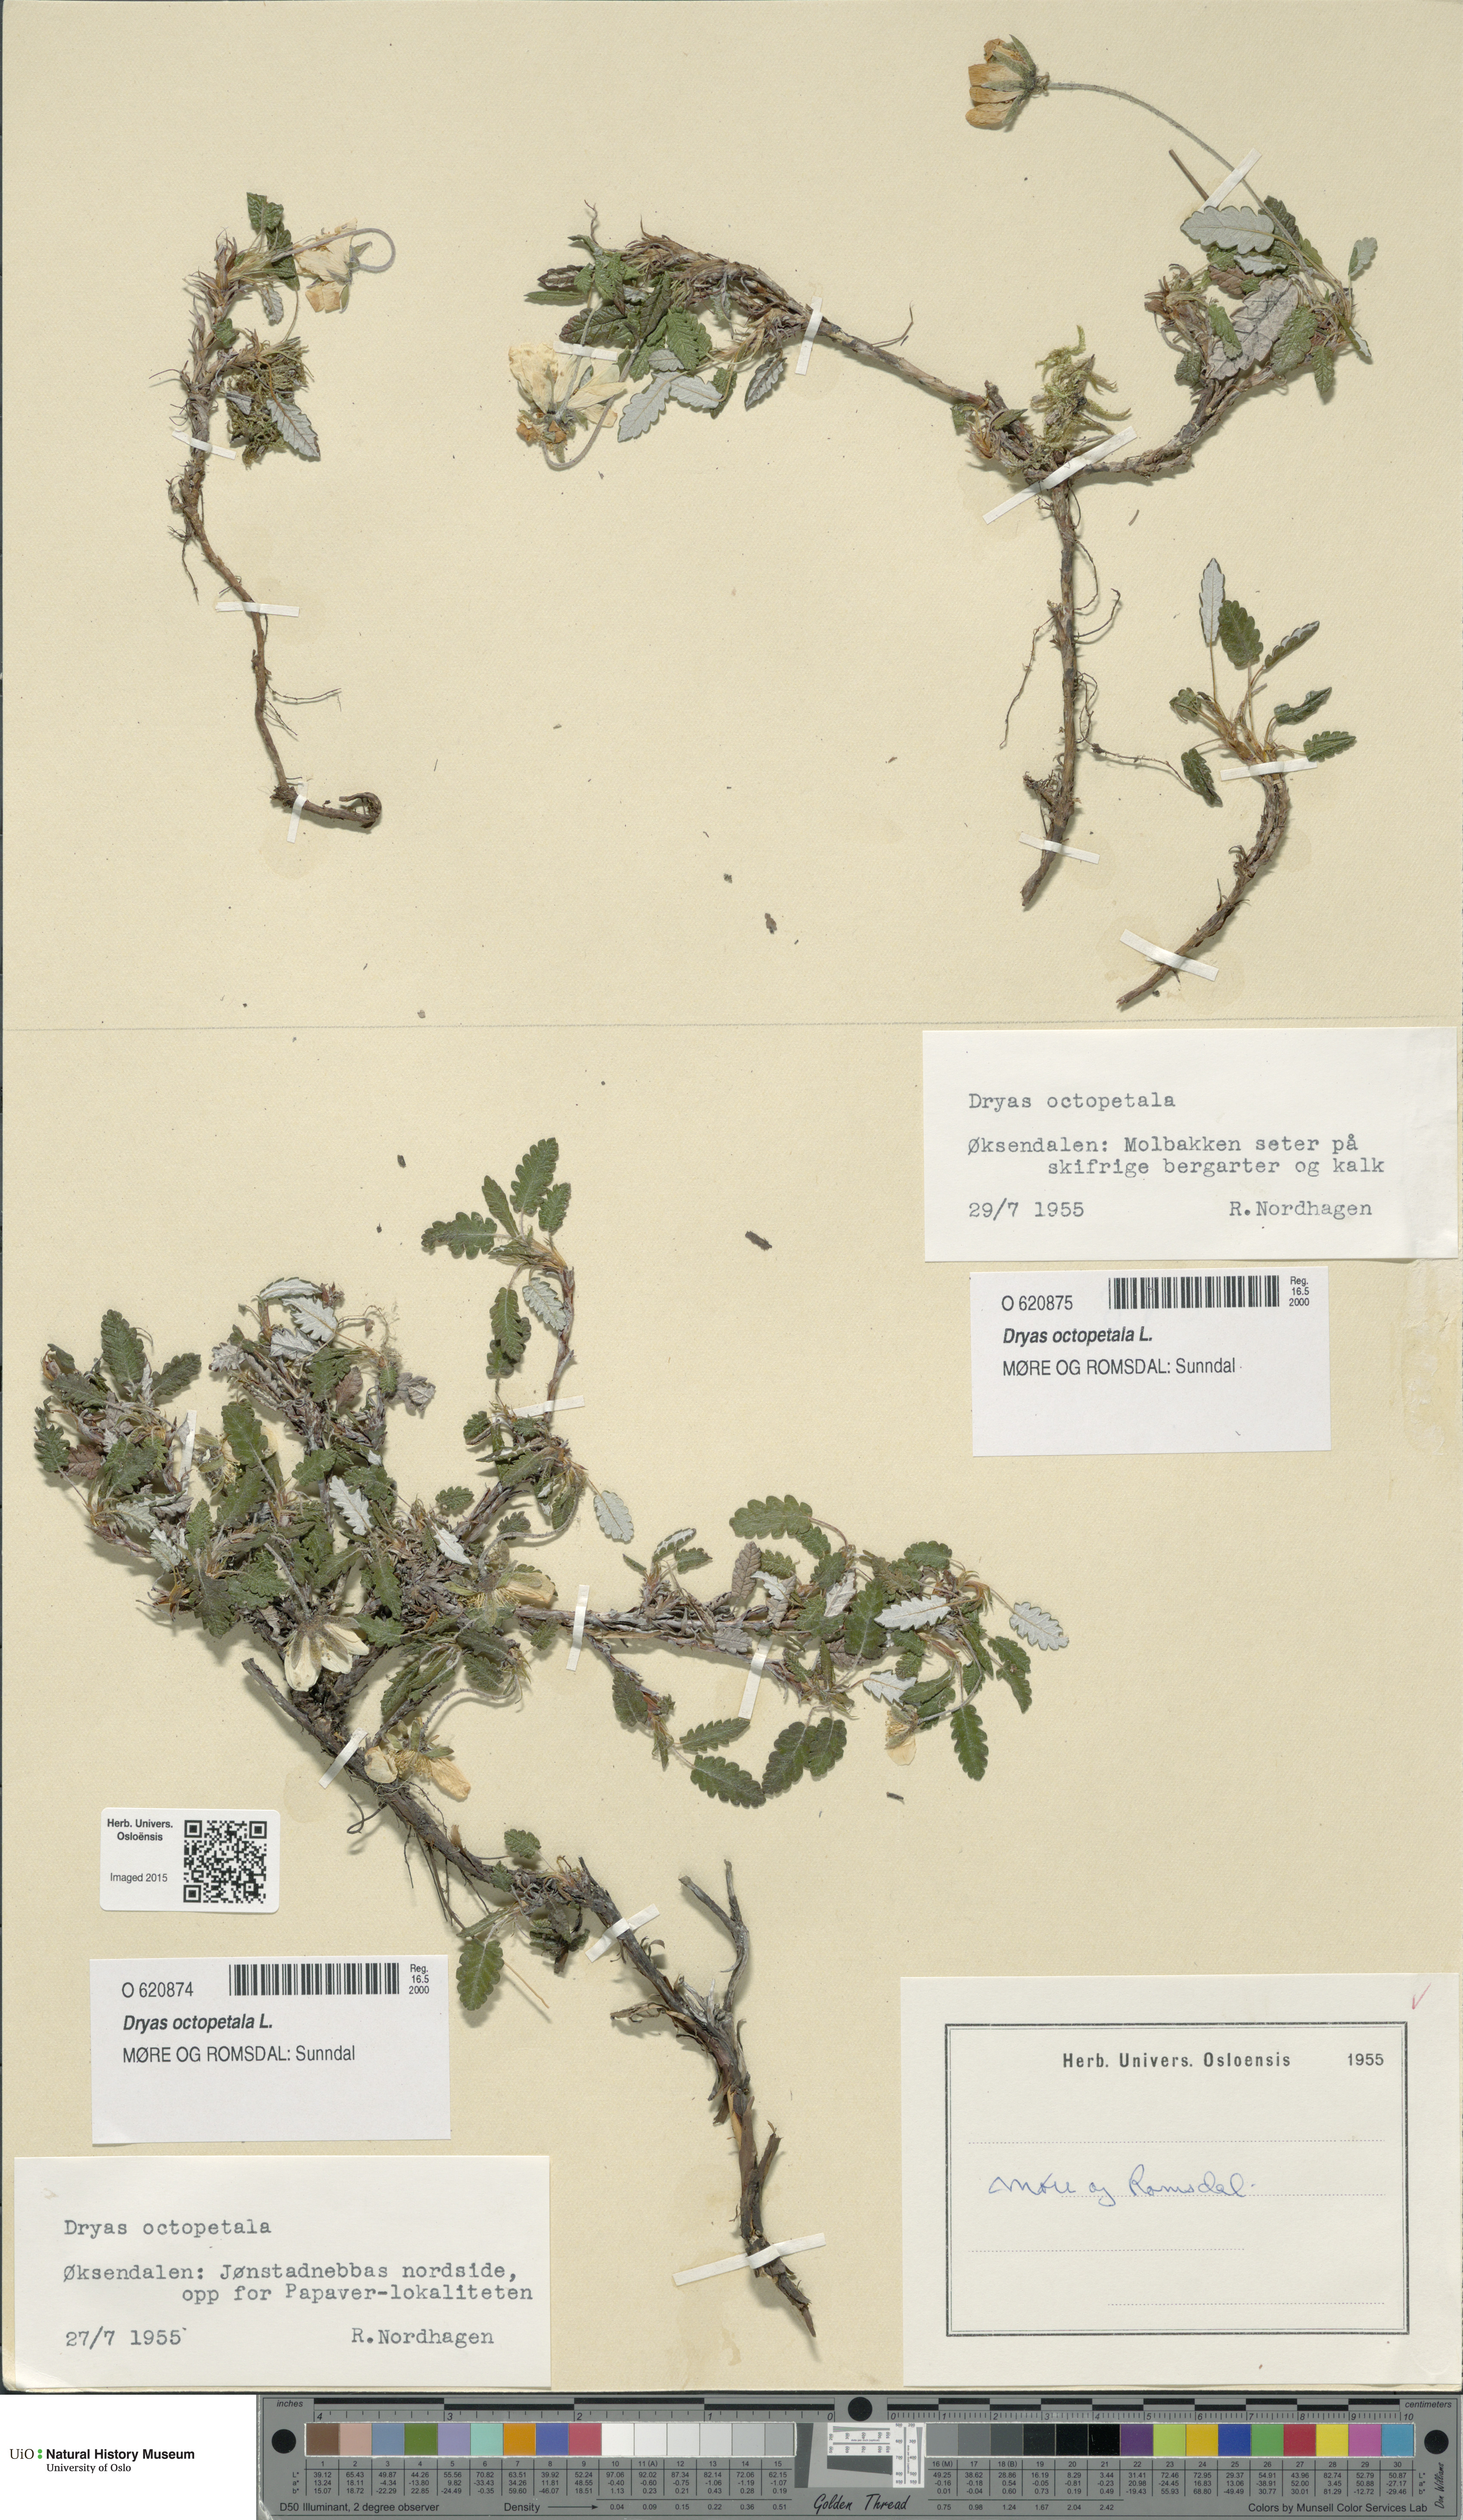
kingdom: Plantae
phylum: Tracheophyta
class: Magnoliopsida
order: Rosales
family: Rosaceae
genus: Dryas
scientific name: Dryas octopetala
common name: Eight-petal mountain-avens
